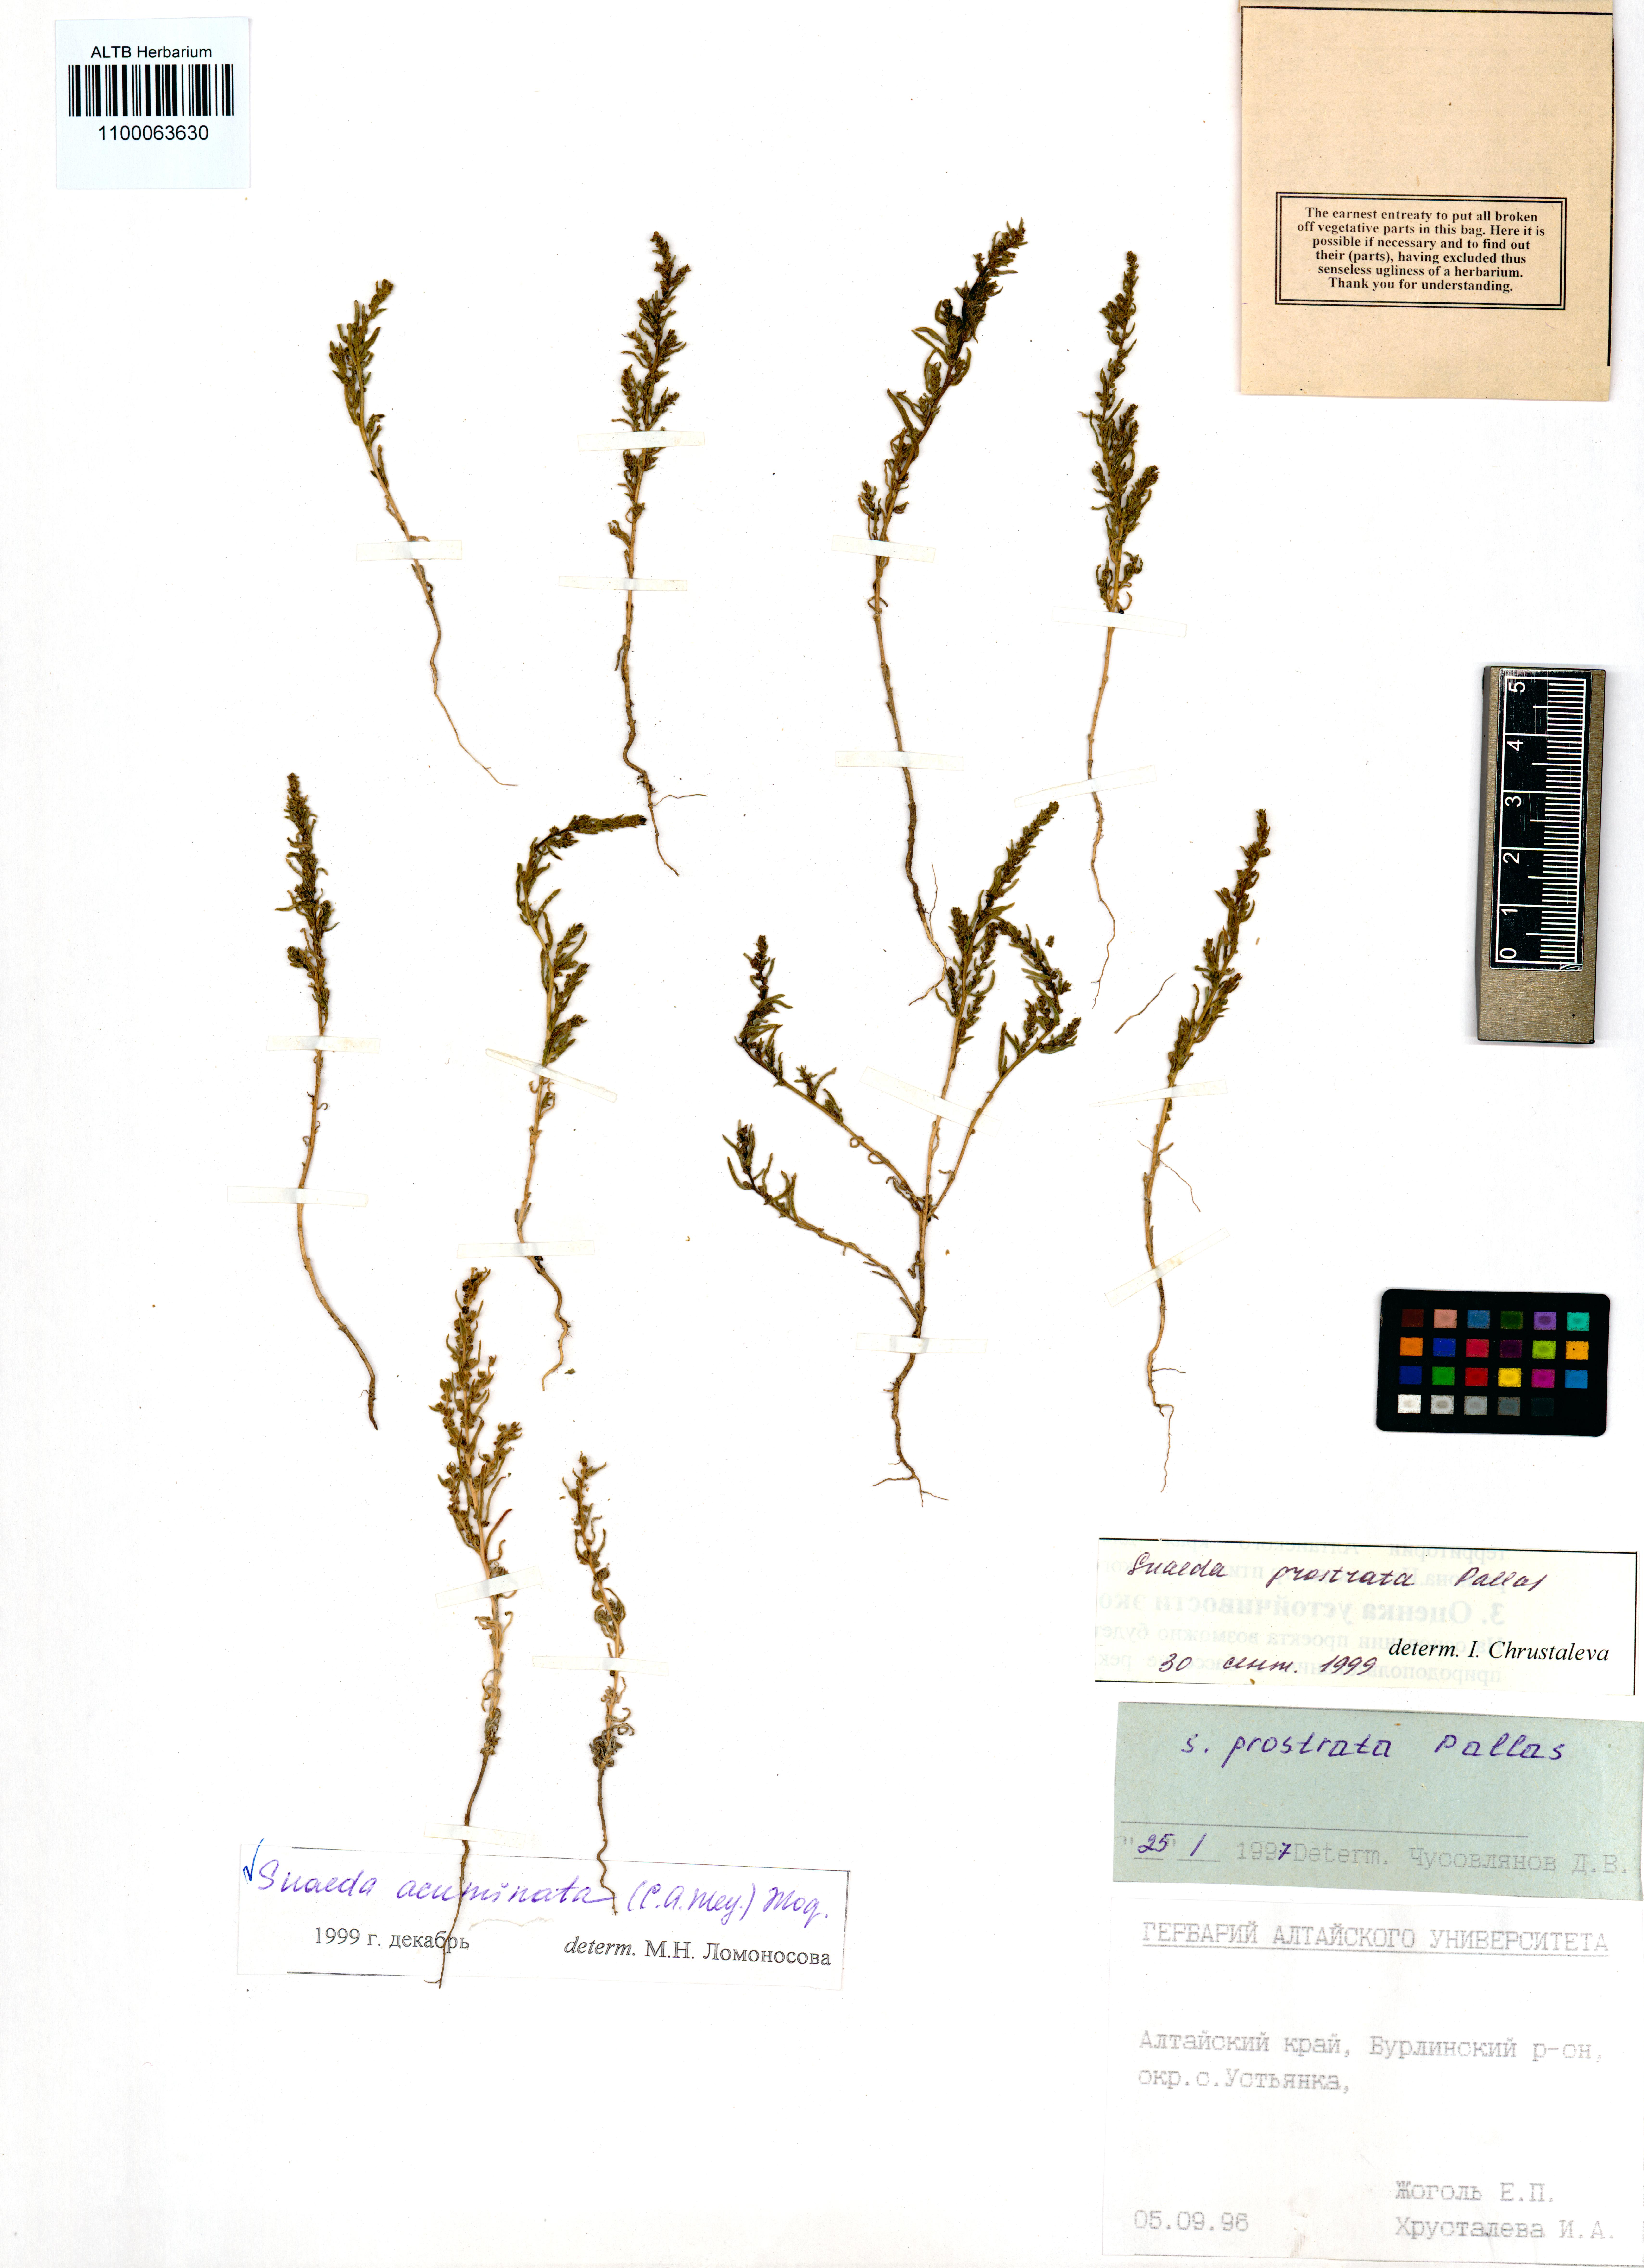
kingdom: Plantae
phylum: Tracheophyta
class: Magnoliopsida
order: Caryophyllales
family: Amaranthaceae
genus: Suaeda
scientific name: Suaeda acuminata
